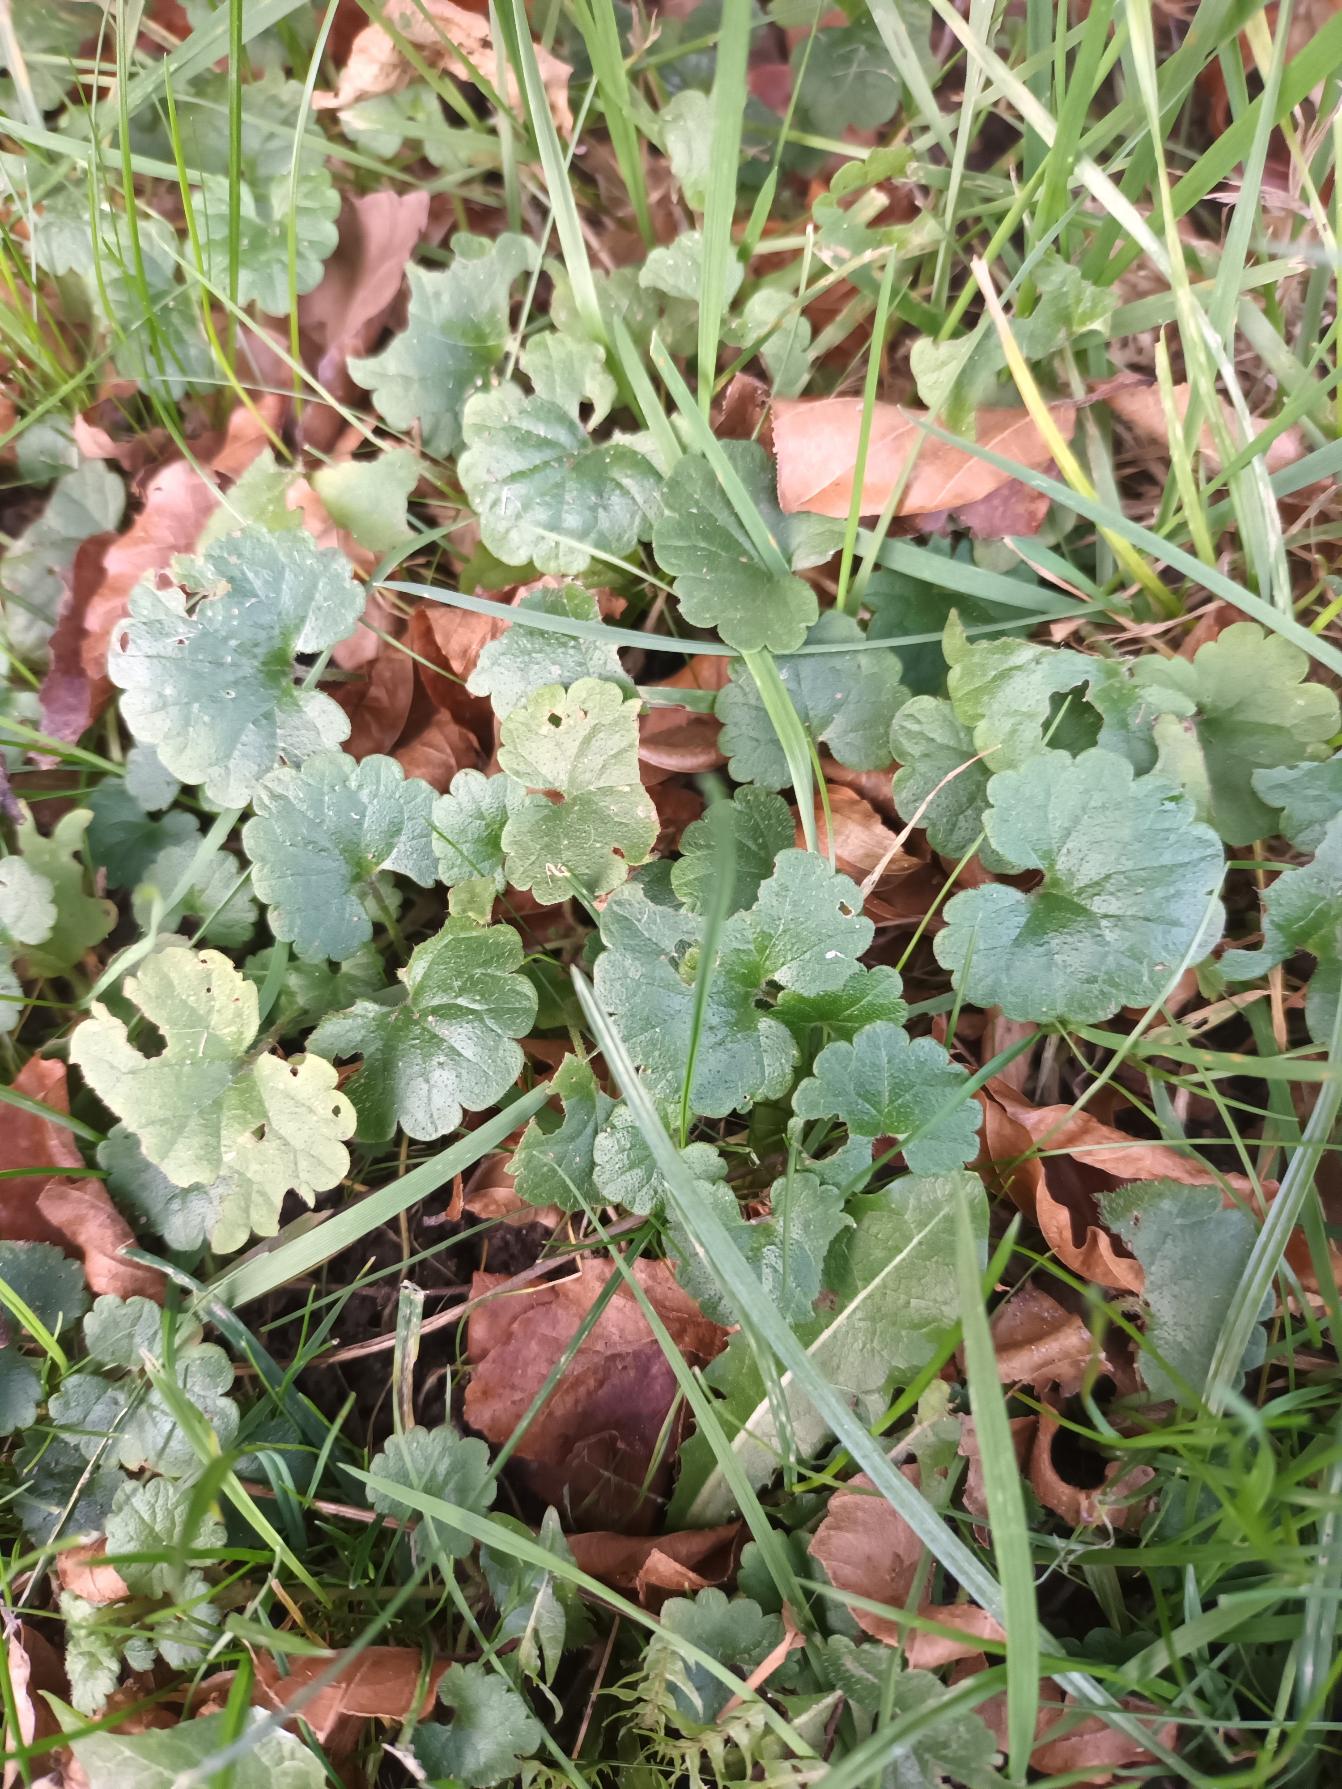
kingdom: Plantae
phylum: Tracheophyta
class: Magnoliopsida
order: Lamiales
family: Lamiaceae
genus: Glechoma
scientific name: Glechoma hederacea
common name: Korsknap
